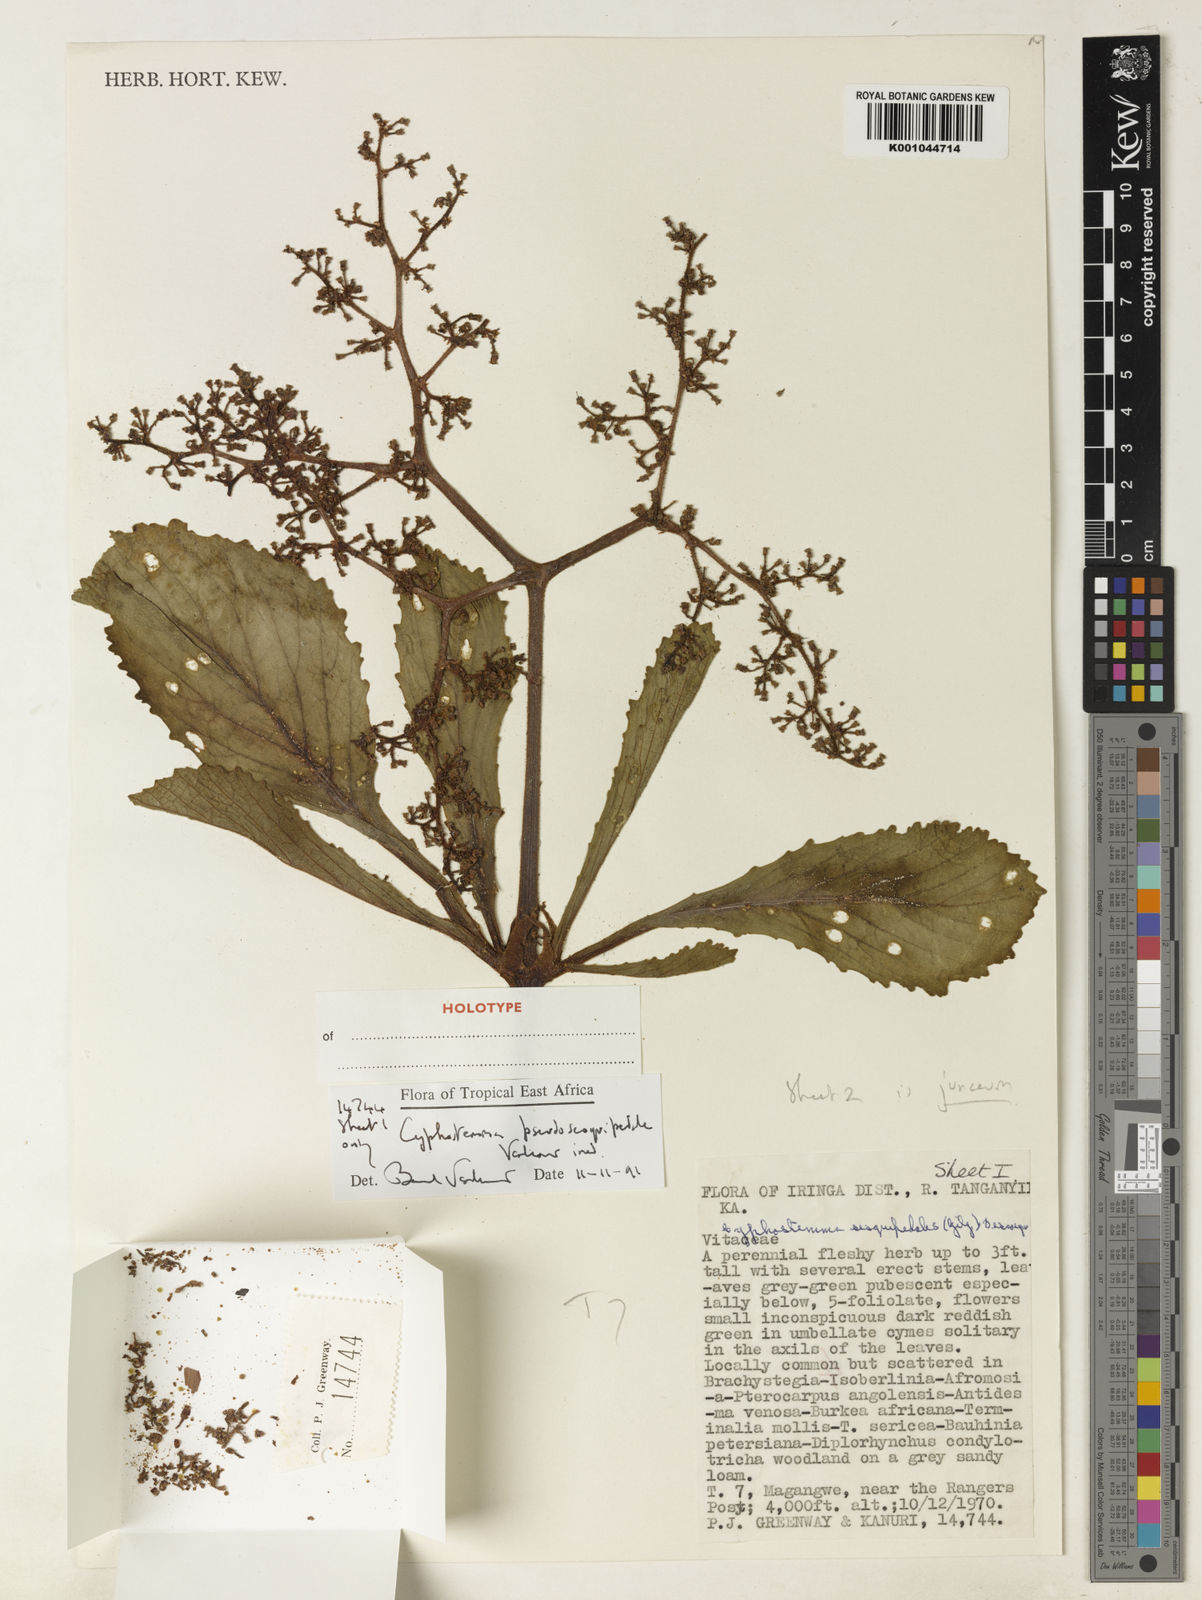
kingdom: Plantae
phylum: Tracheophyta
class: Magnoliopsida
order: Vitales
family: Vitaceae
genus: Cyphostemma
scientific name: Cyphostemma pseudosesquipedale
